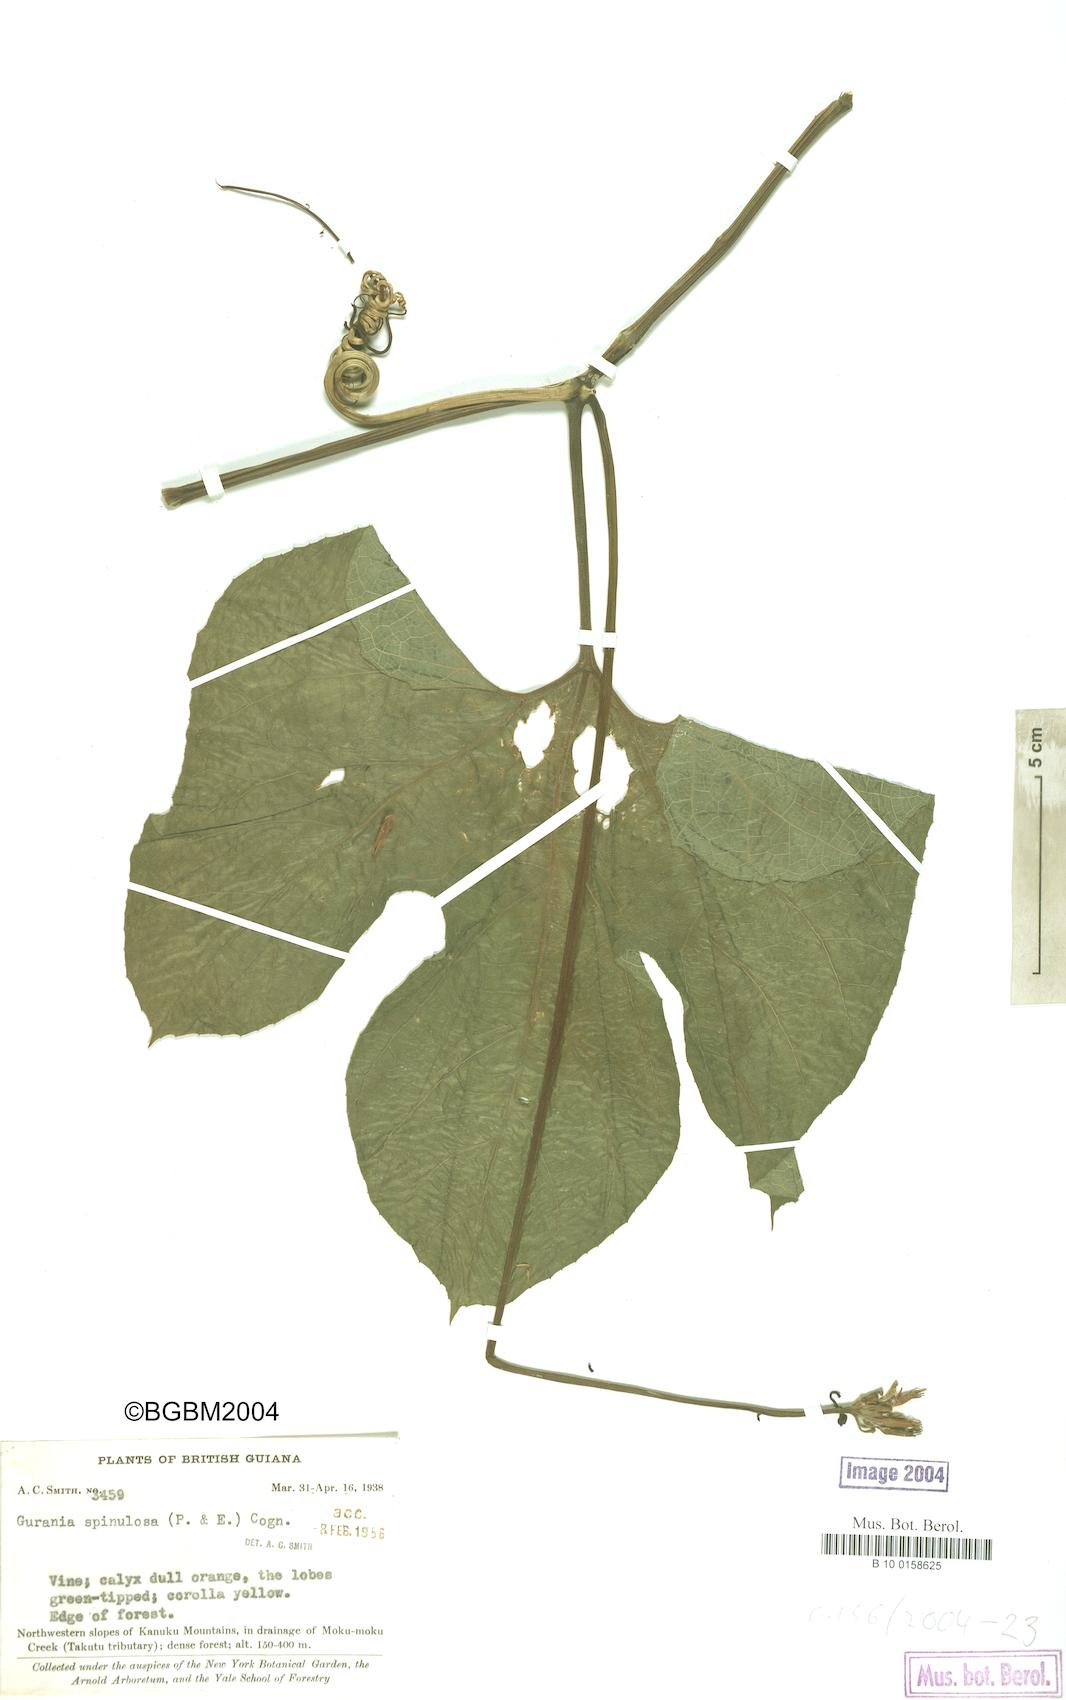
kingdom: Plantae
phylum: Tracheophyta
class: Magnoliopsida
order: Cucurbitales
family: Cucurbitaceae
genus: Gurania
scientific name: Gurania lobata
